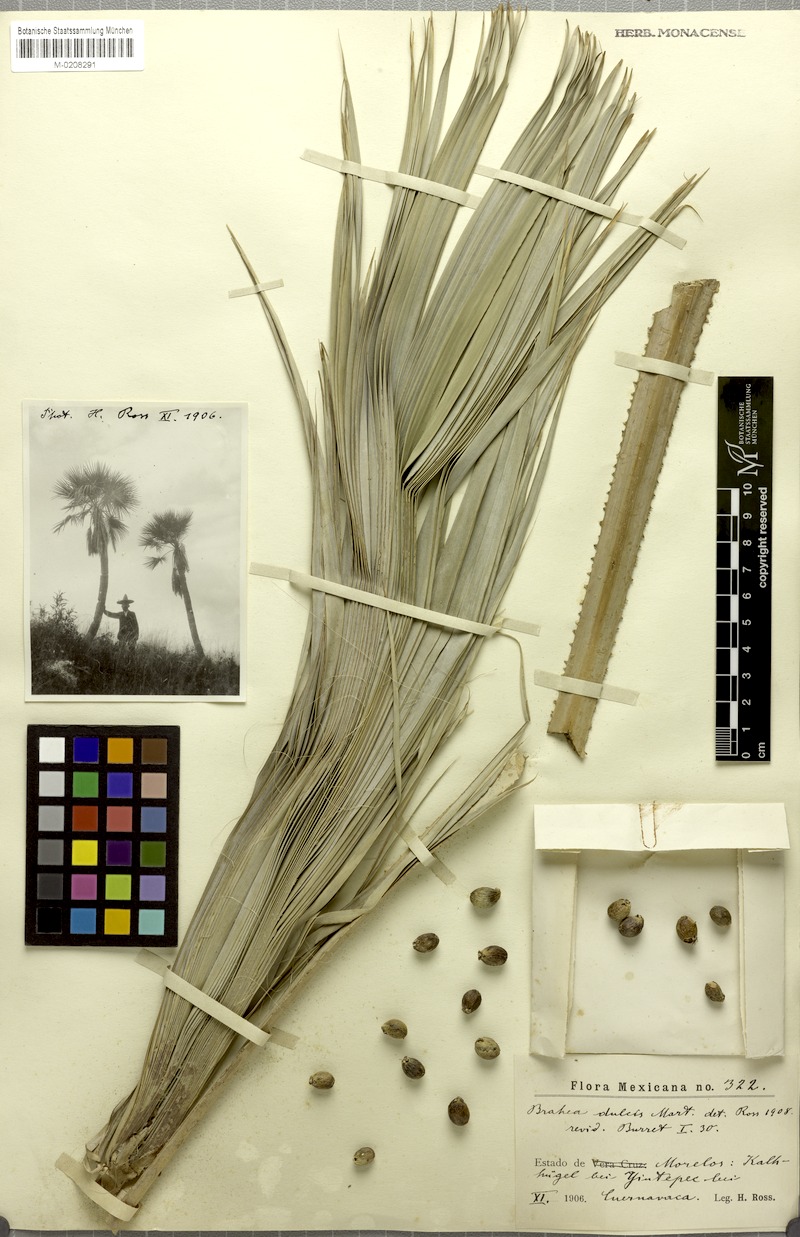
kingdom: Plantae
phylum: Tracheophyta
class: Liliopsida
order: Arecales
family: Arecaceae
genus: Brahea
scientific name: Brahea dulcis
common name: Apak palm
